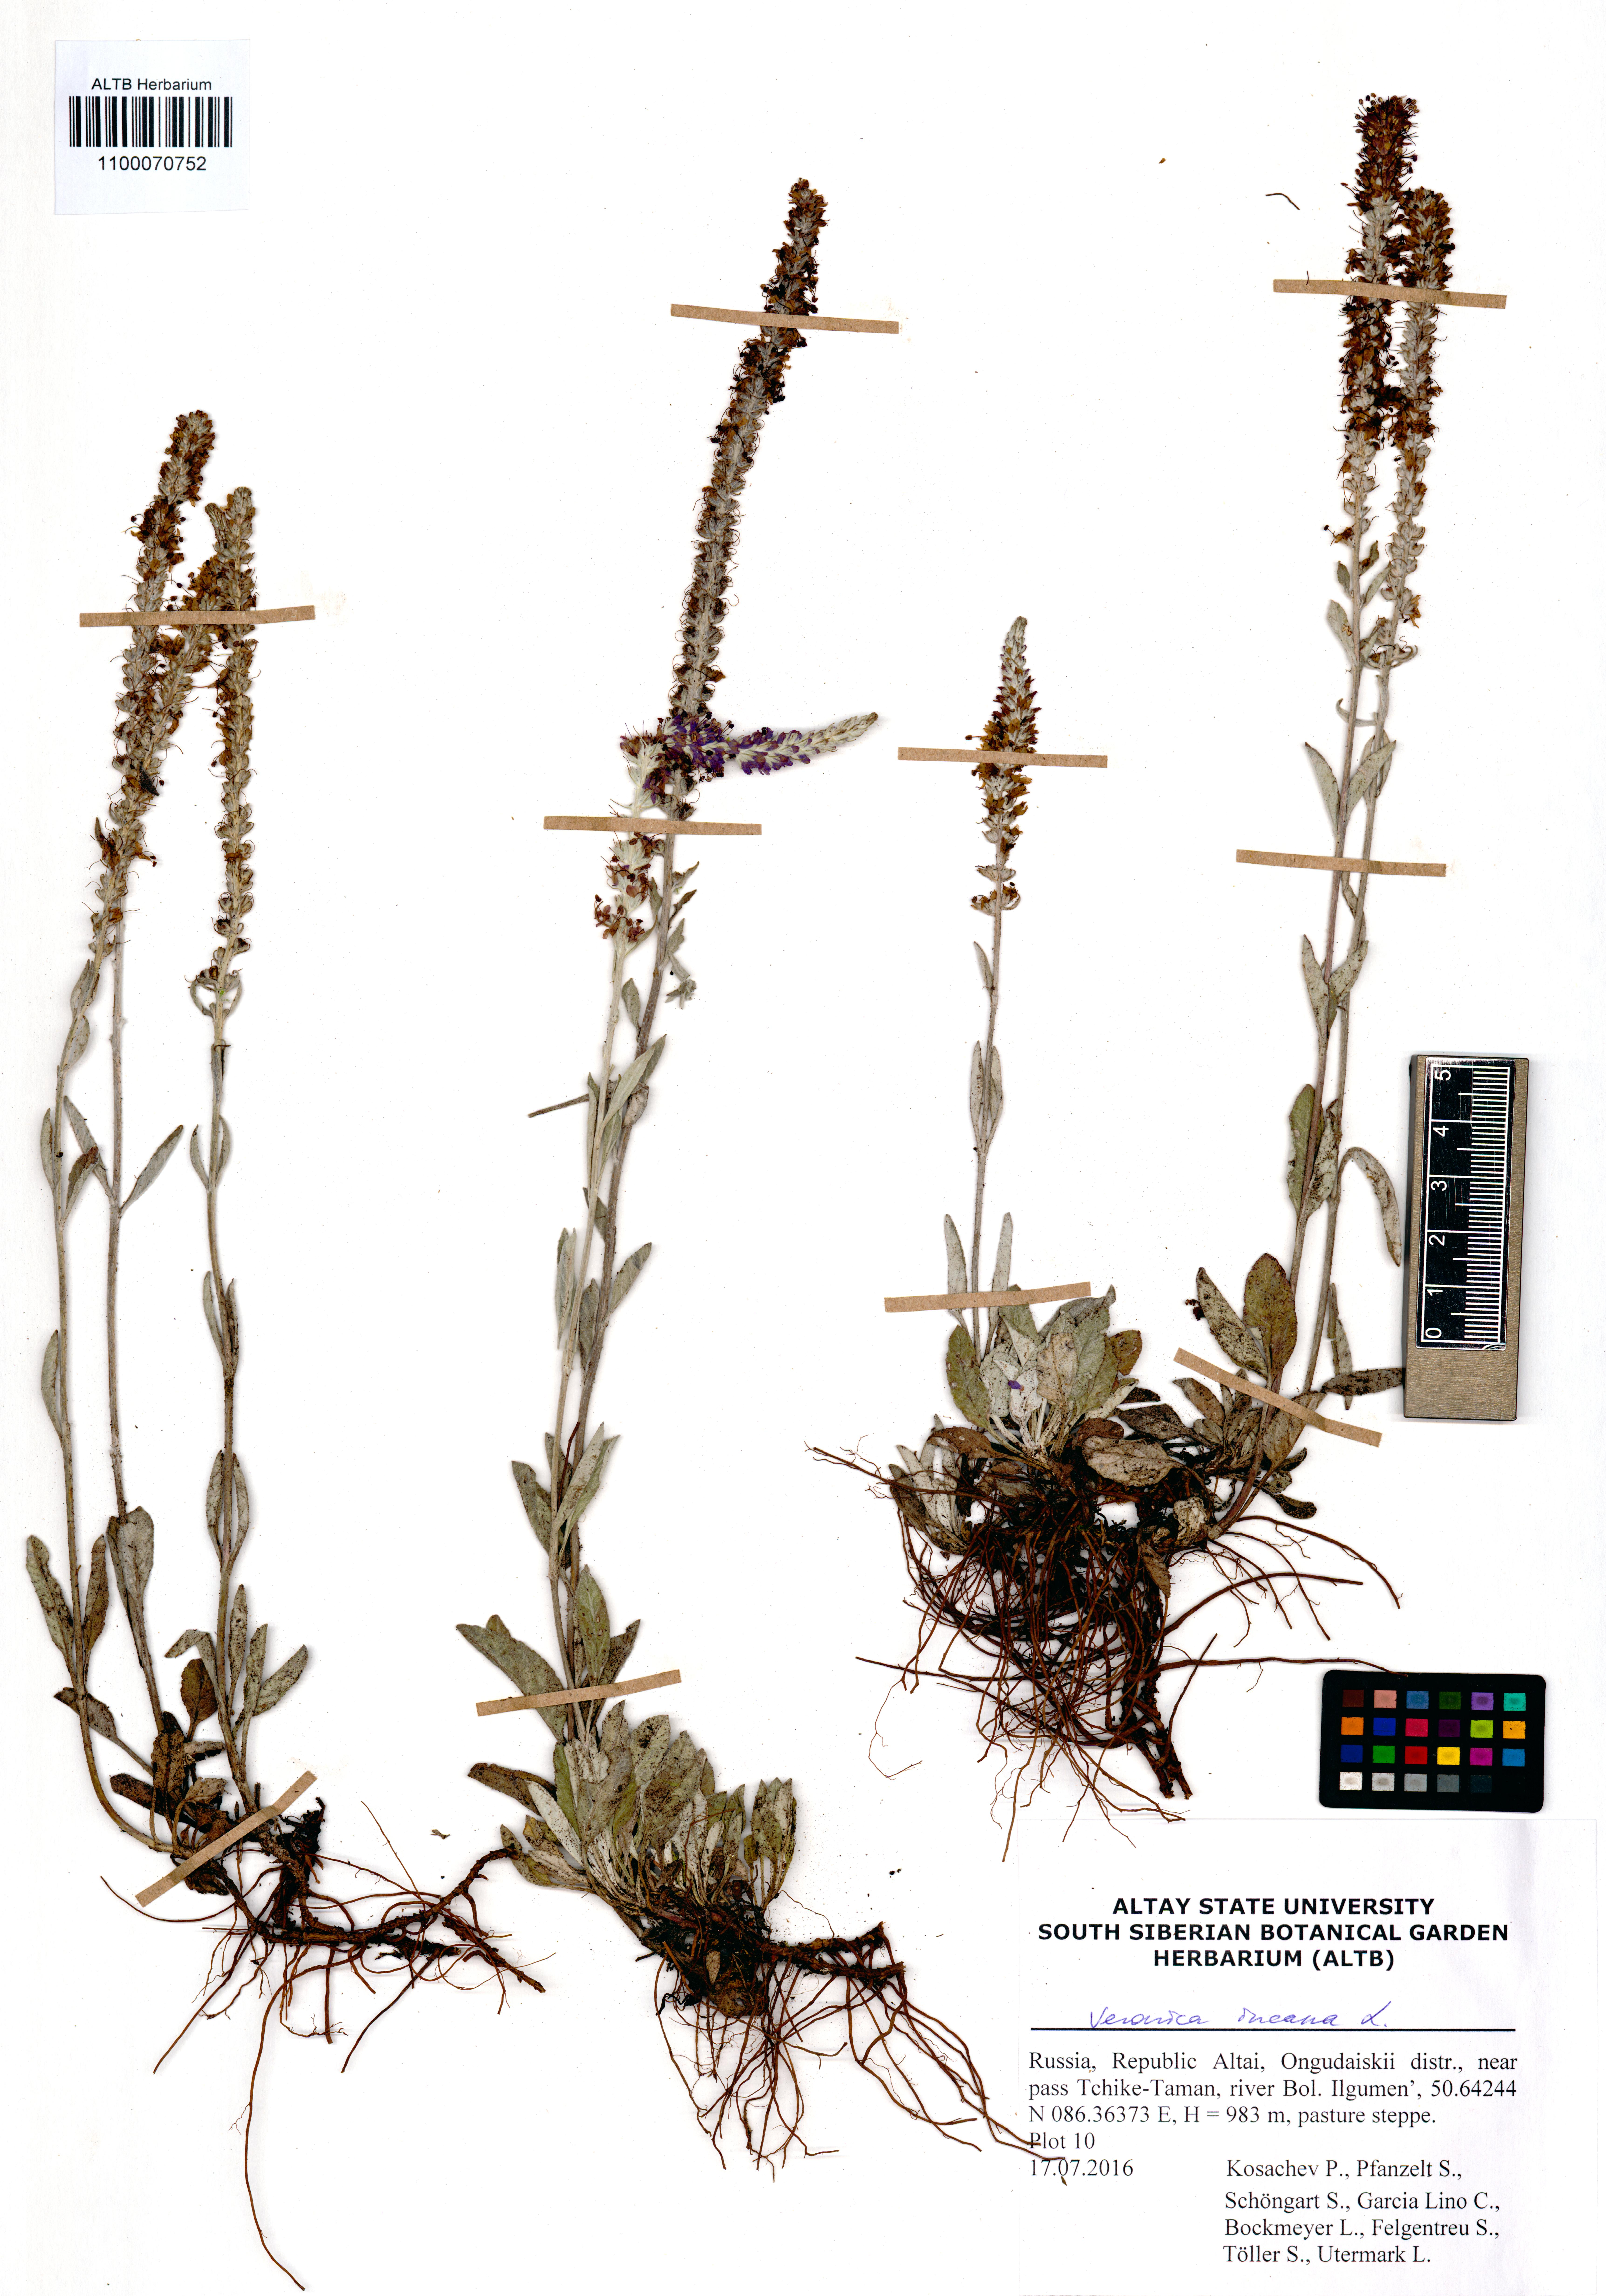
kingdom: Plantae
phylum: Tracheophyta
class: Magnoliopsida
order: Lamiales
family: Plantaginaceae
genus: Veronica
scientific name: Veronica incana
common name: Silver speedwell
